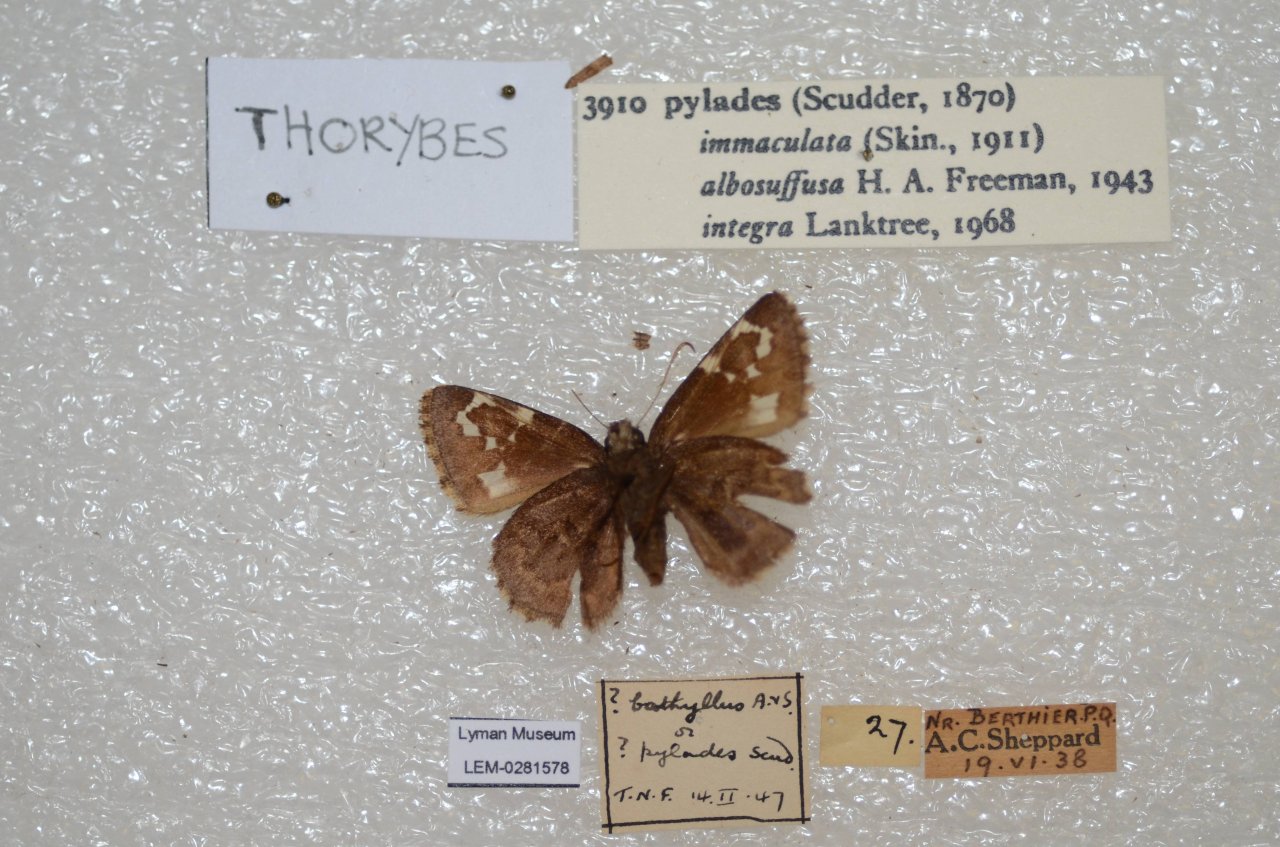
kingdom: Animalia
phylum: Arthropoda
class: Insecta
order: Lepidoptera
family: Hesperiidae
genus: Autochton
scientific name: Autochton
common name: Northern Cloudywing
